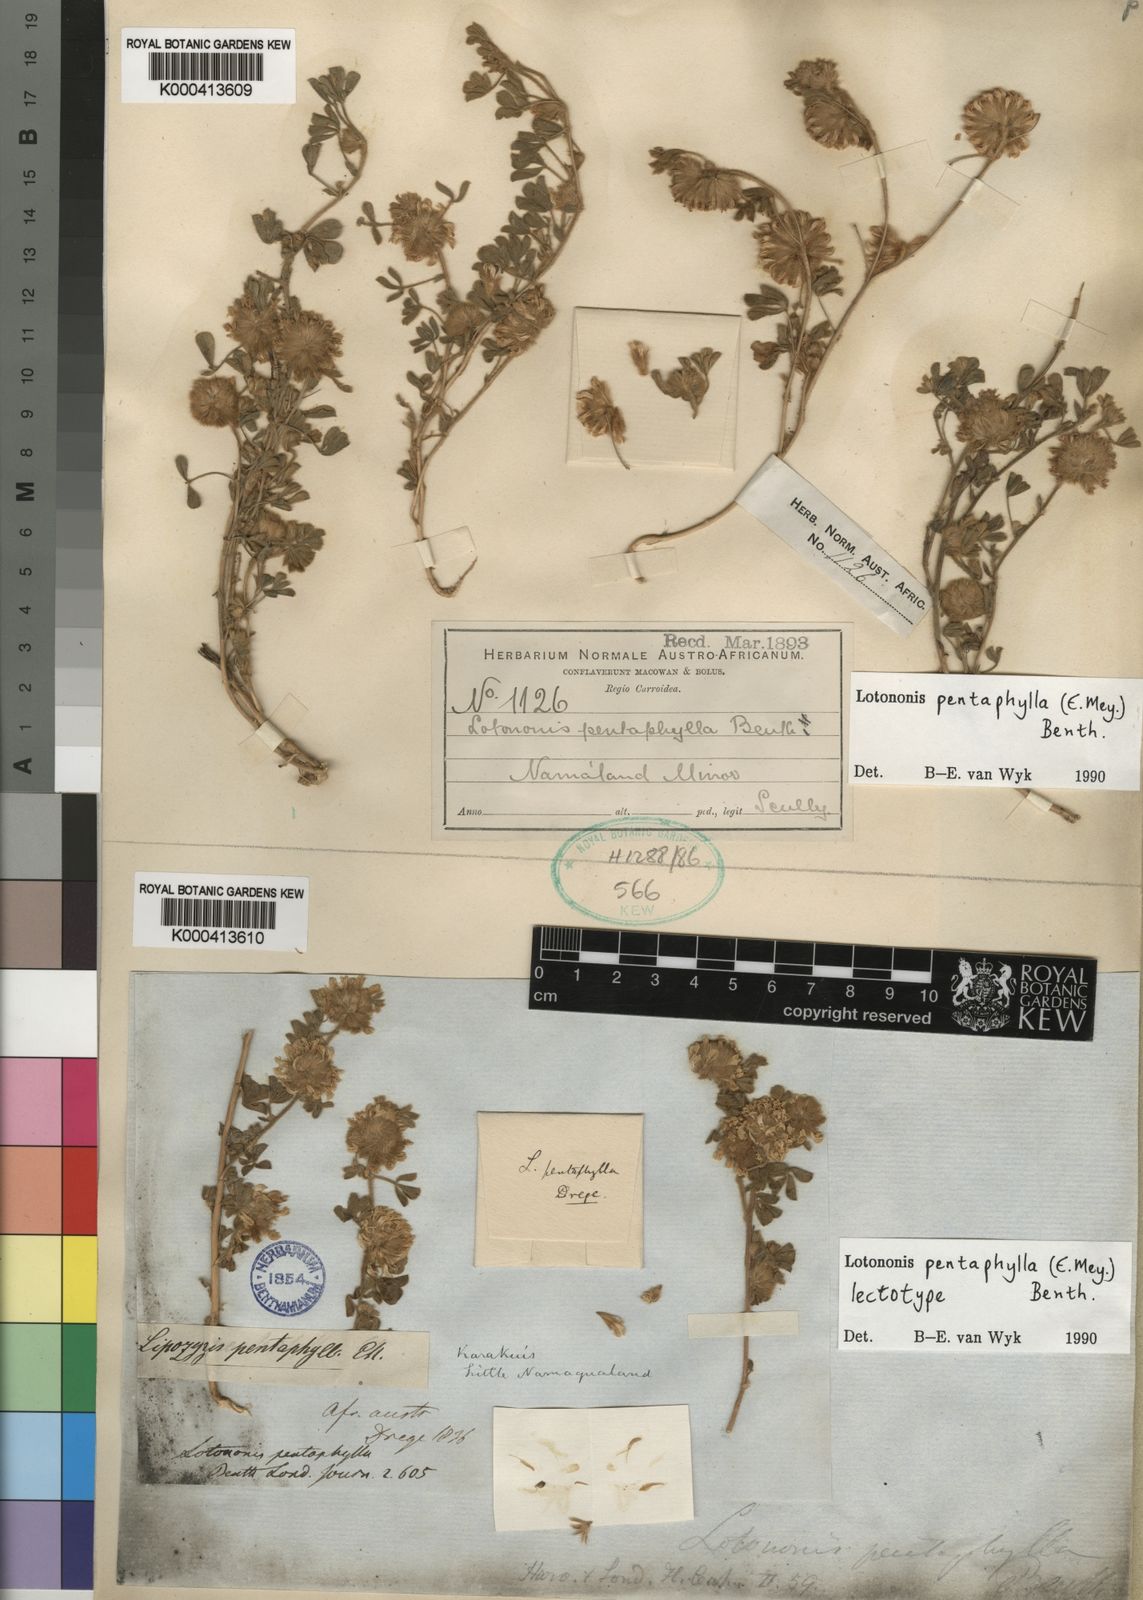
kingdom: Plantae
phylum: Tracheophyta
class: Magnoliopsida
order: Fabales
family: Fabaceae
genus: Leobordea
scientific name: Leobordea pentaphylla
